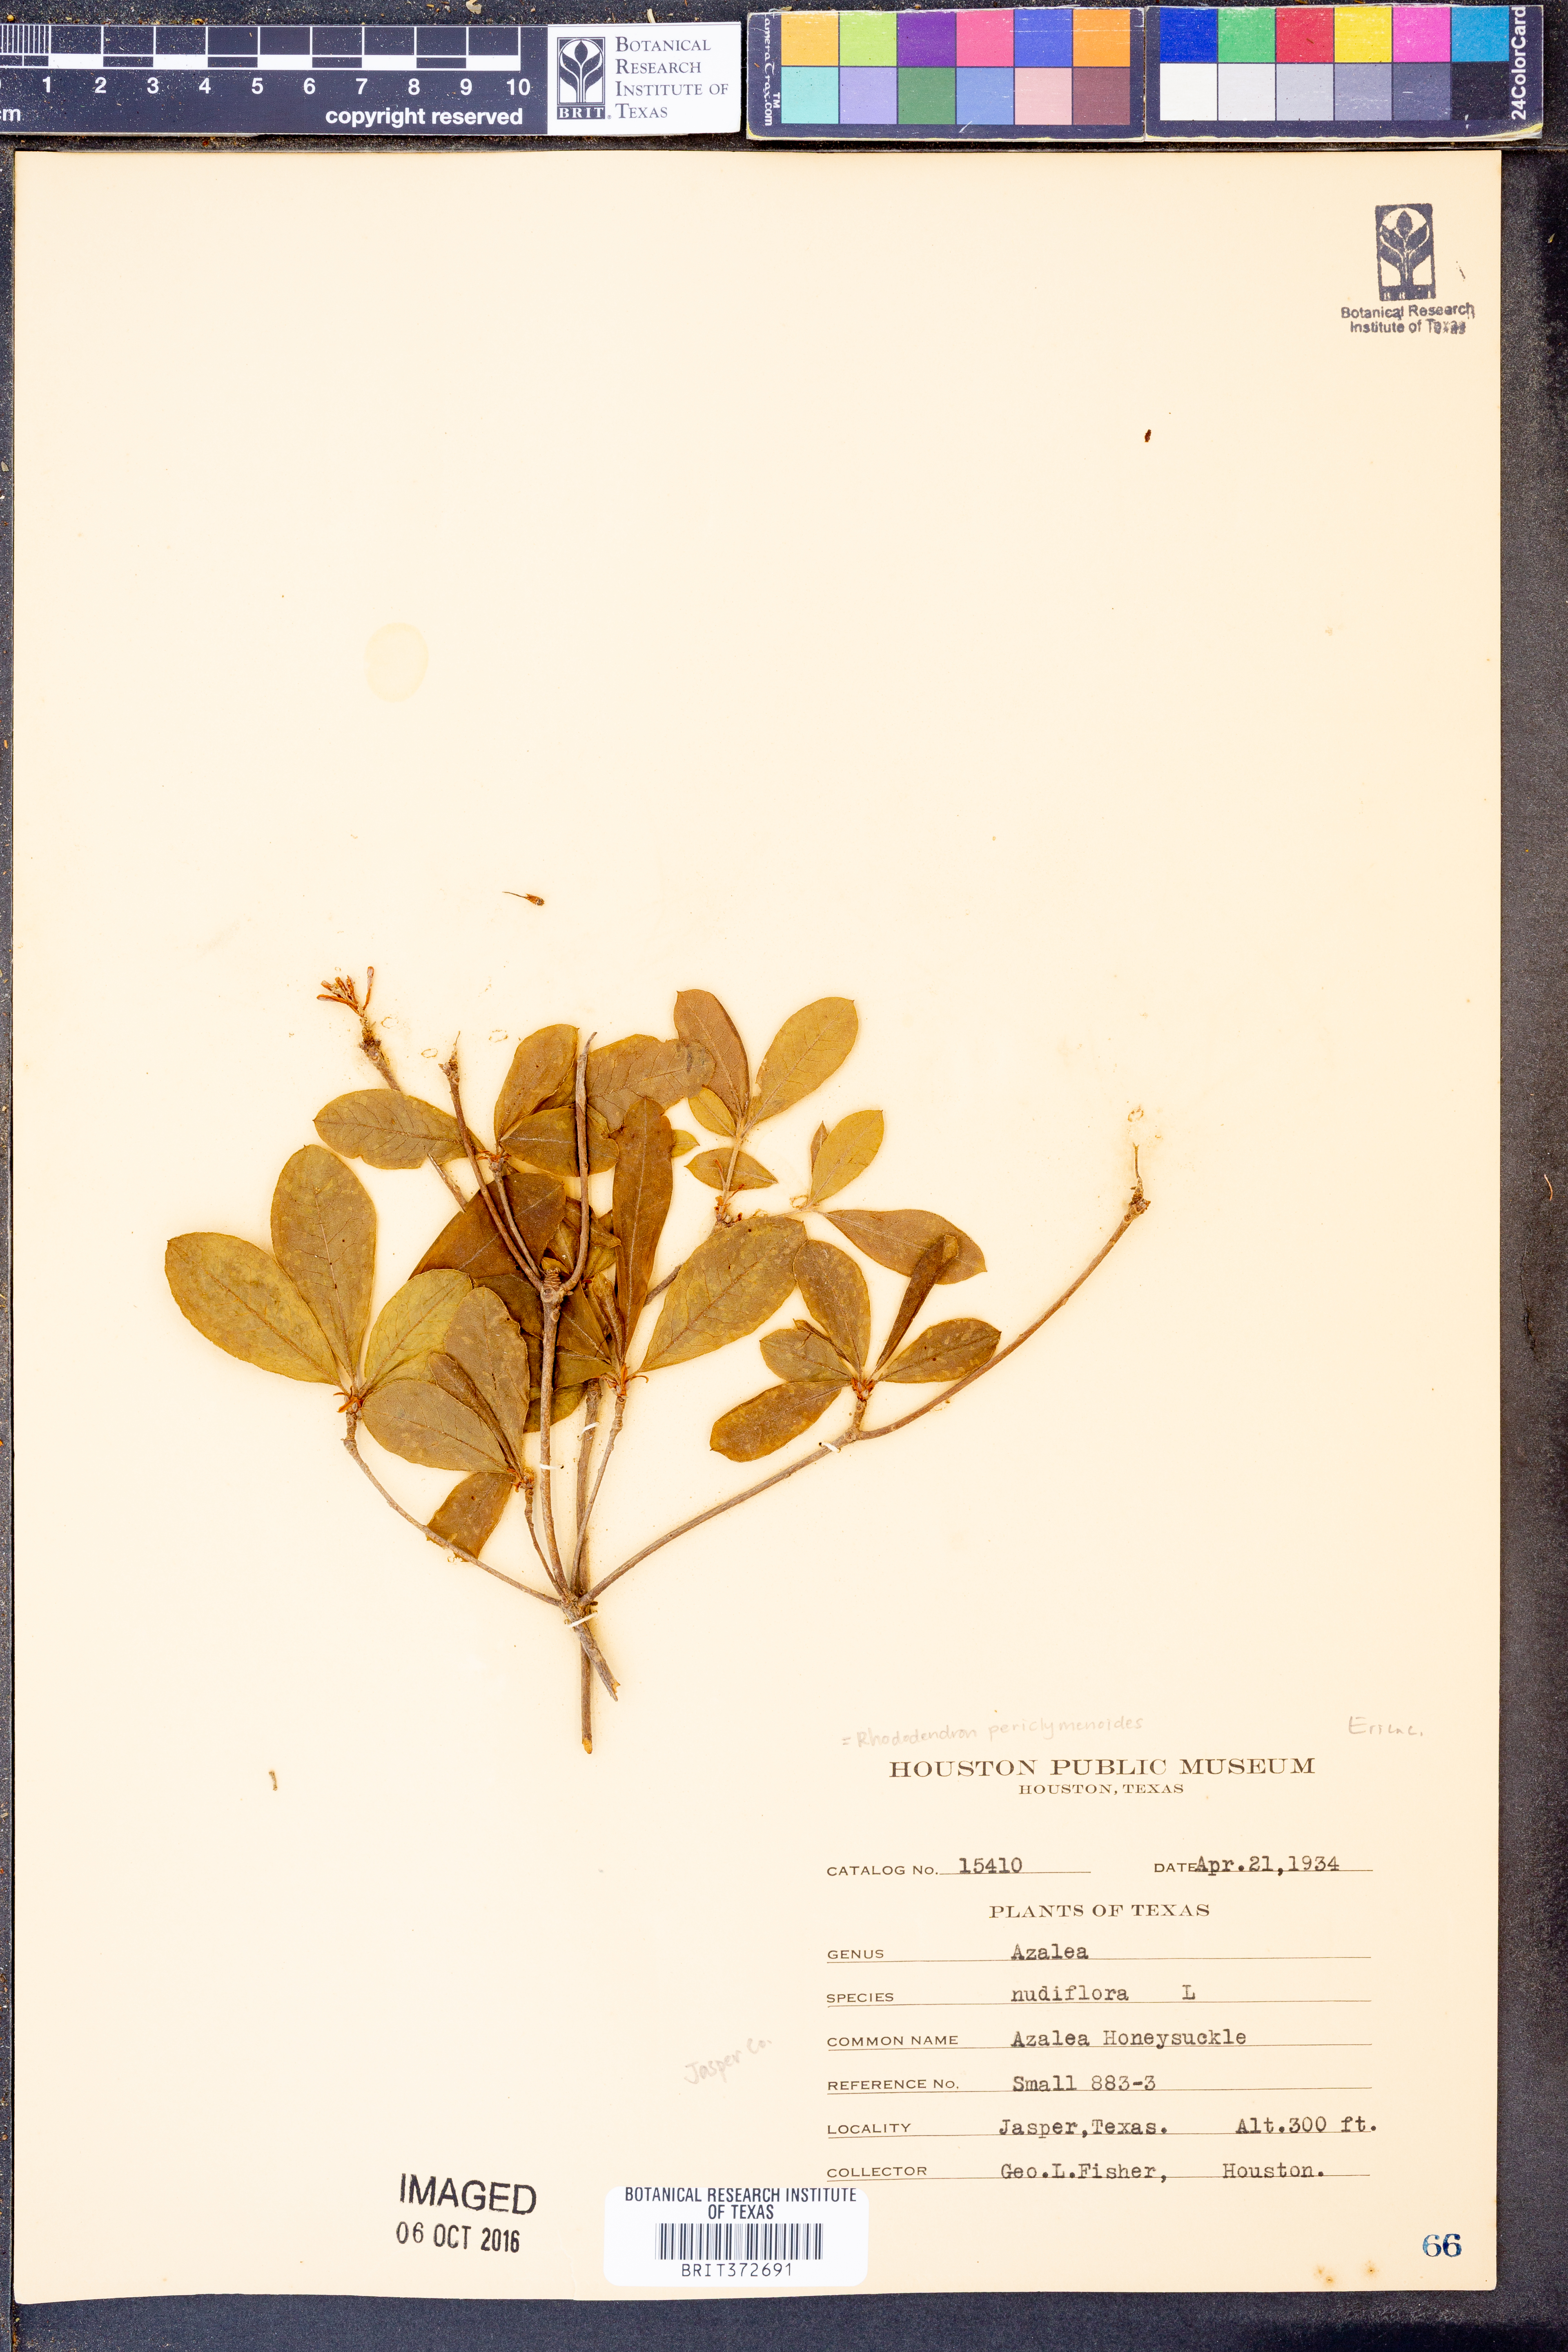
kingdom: Plantae
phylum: Tracheophyta
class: Magnoliopsida
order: Ericales
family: Ericaceae
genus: Rhododendron
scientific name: Rhododendron periclymenoides
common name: Election-pink
